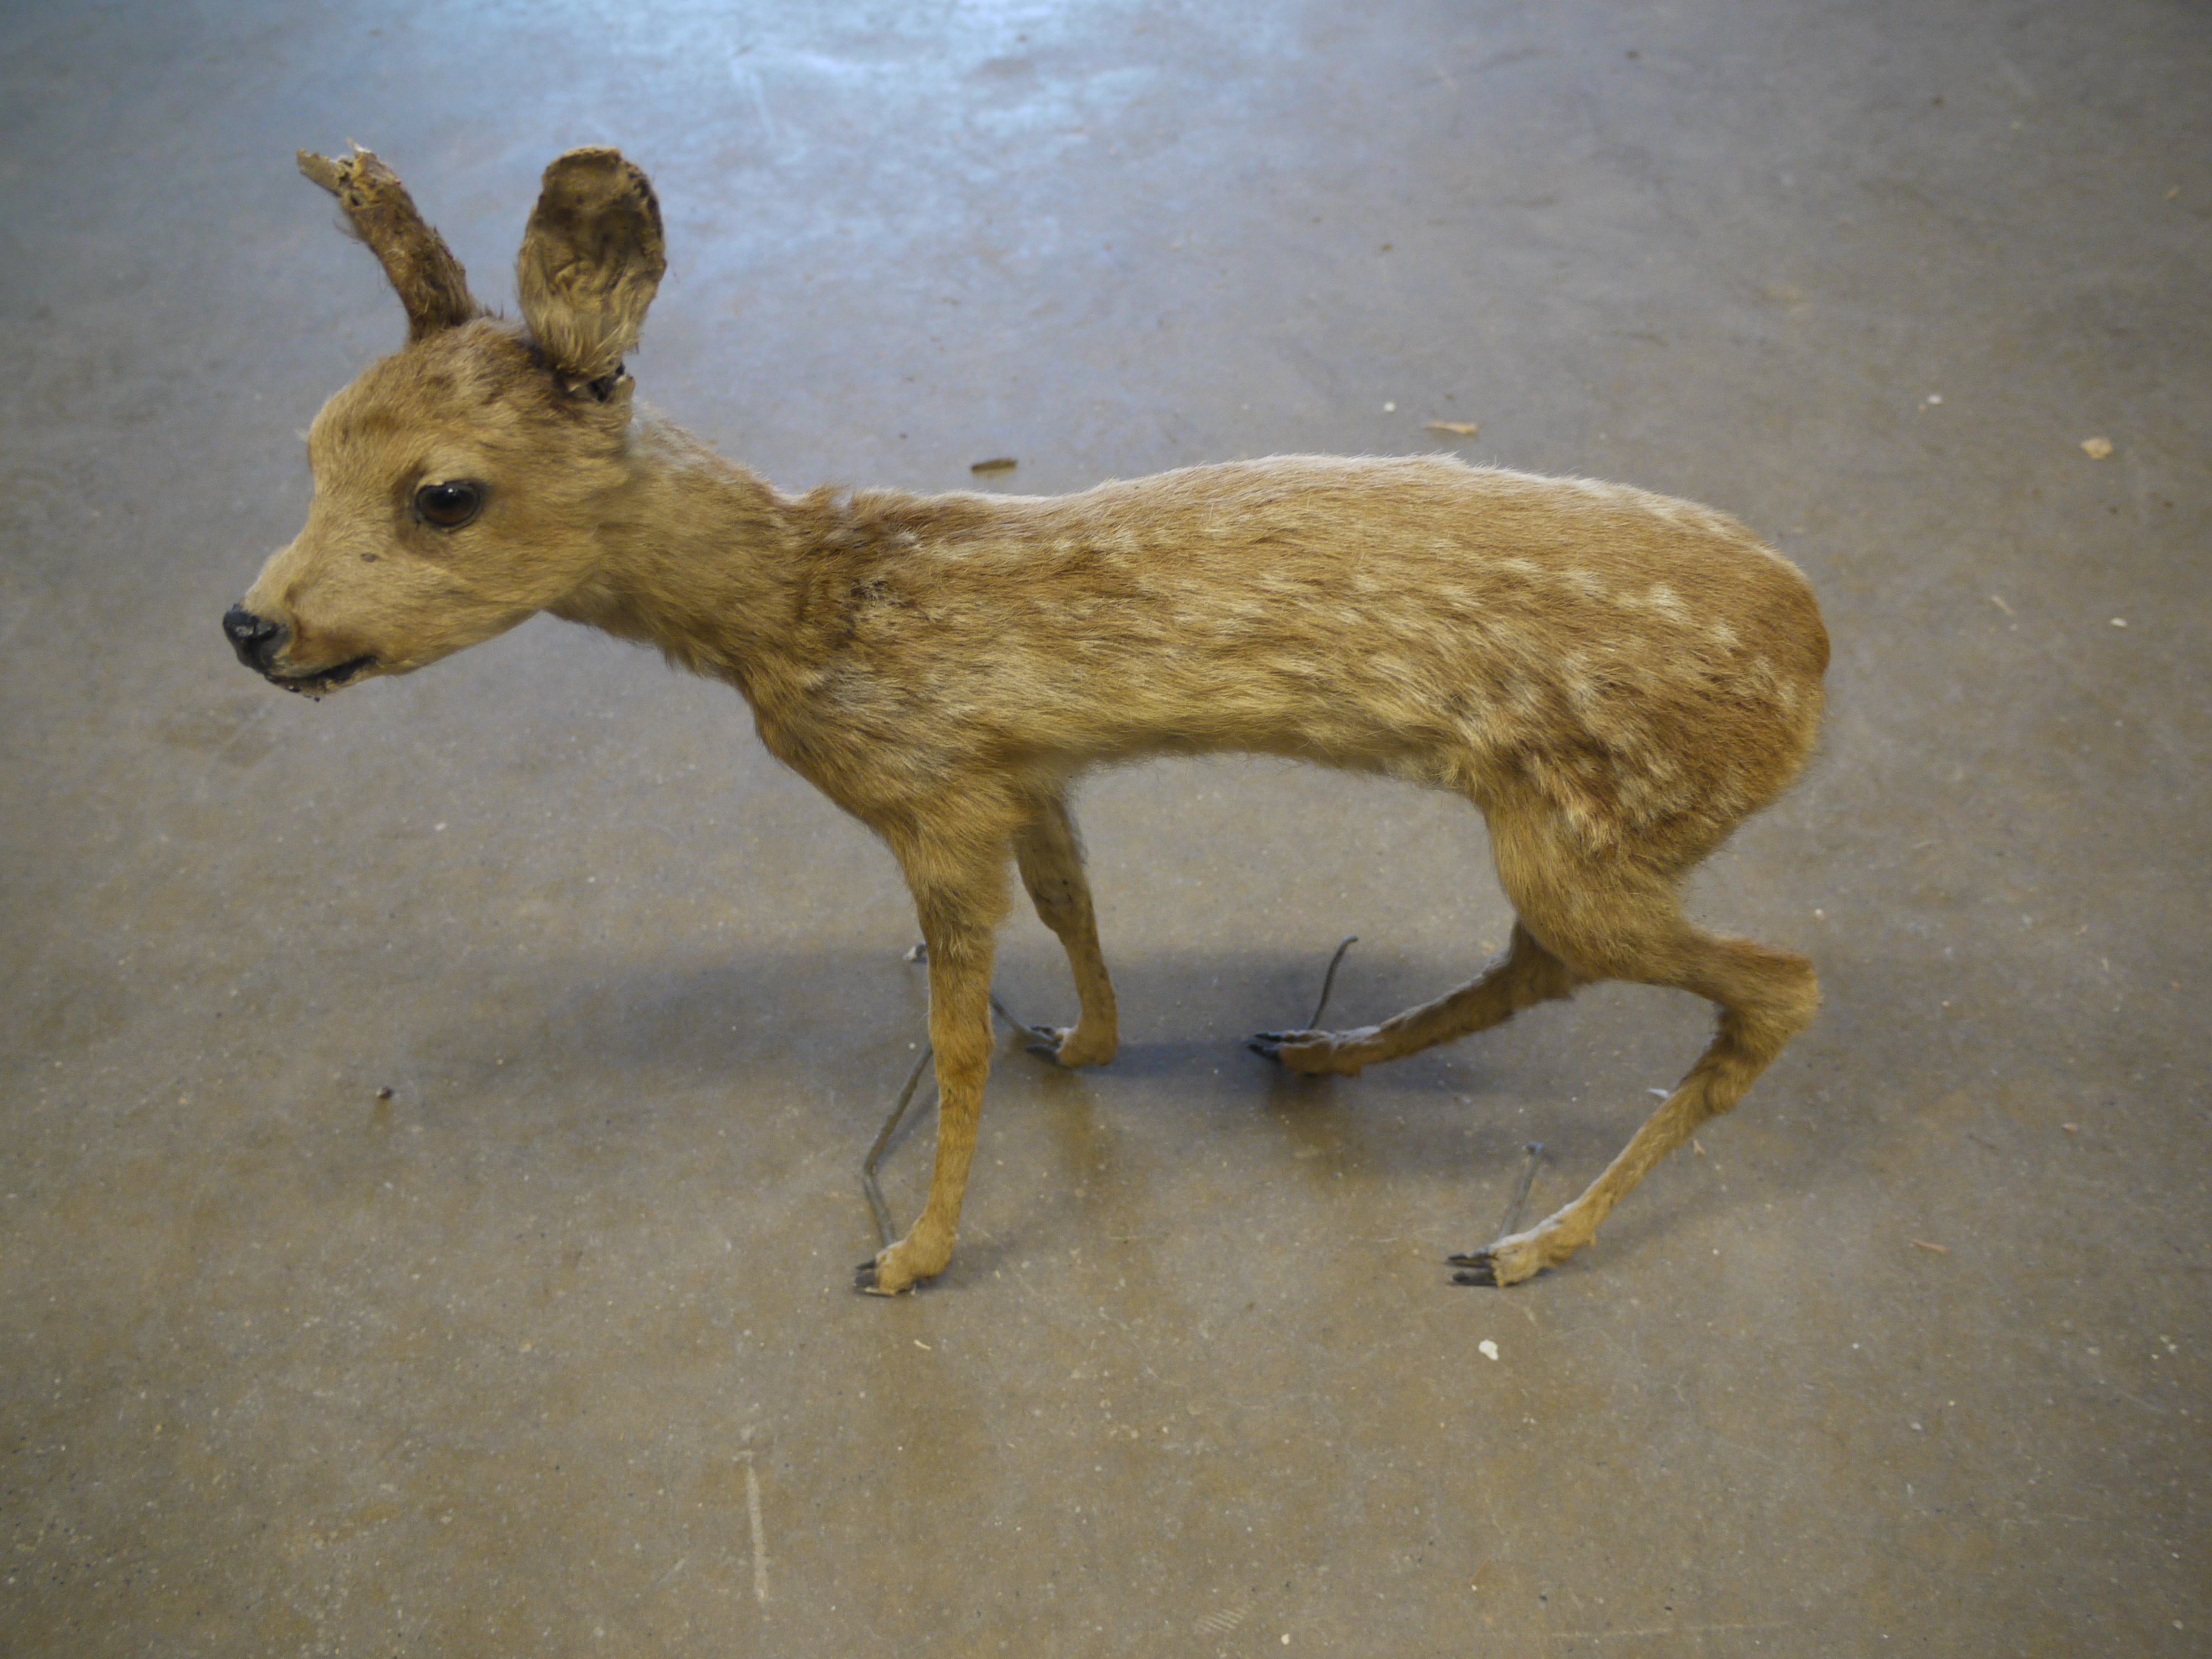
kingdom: Animalia
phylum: Chordata
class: Mammalia
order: Artiodactyla
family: Cervidae
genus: Capreolus
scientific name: Capreolus capreolus
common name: Western roe deer
